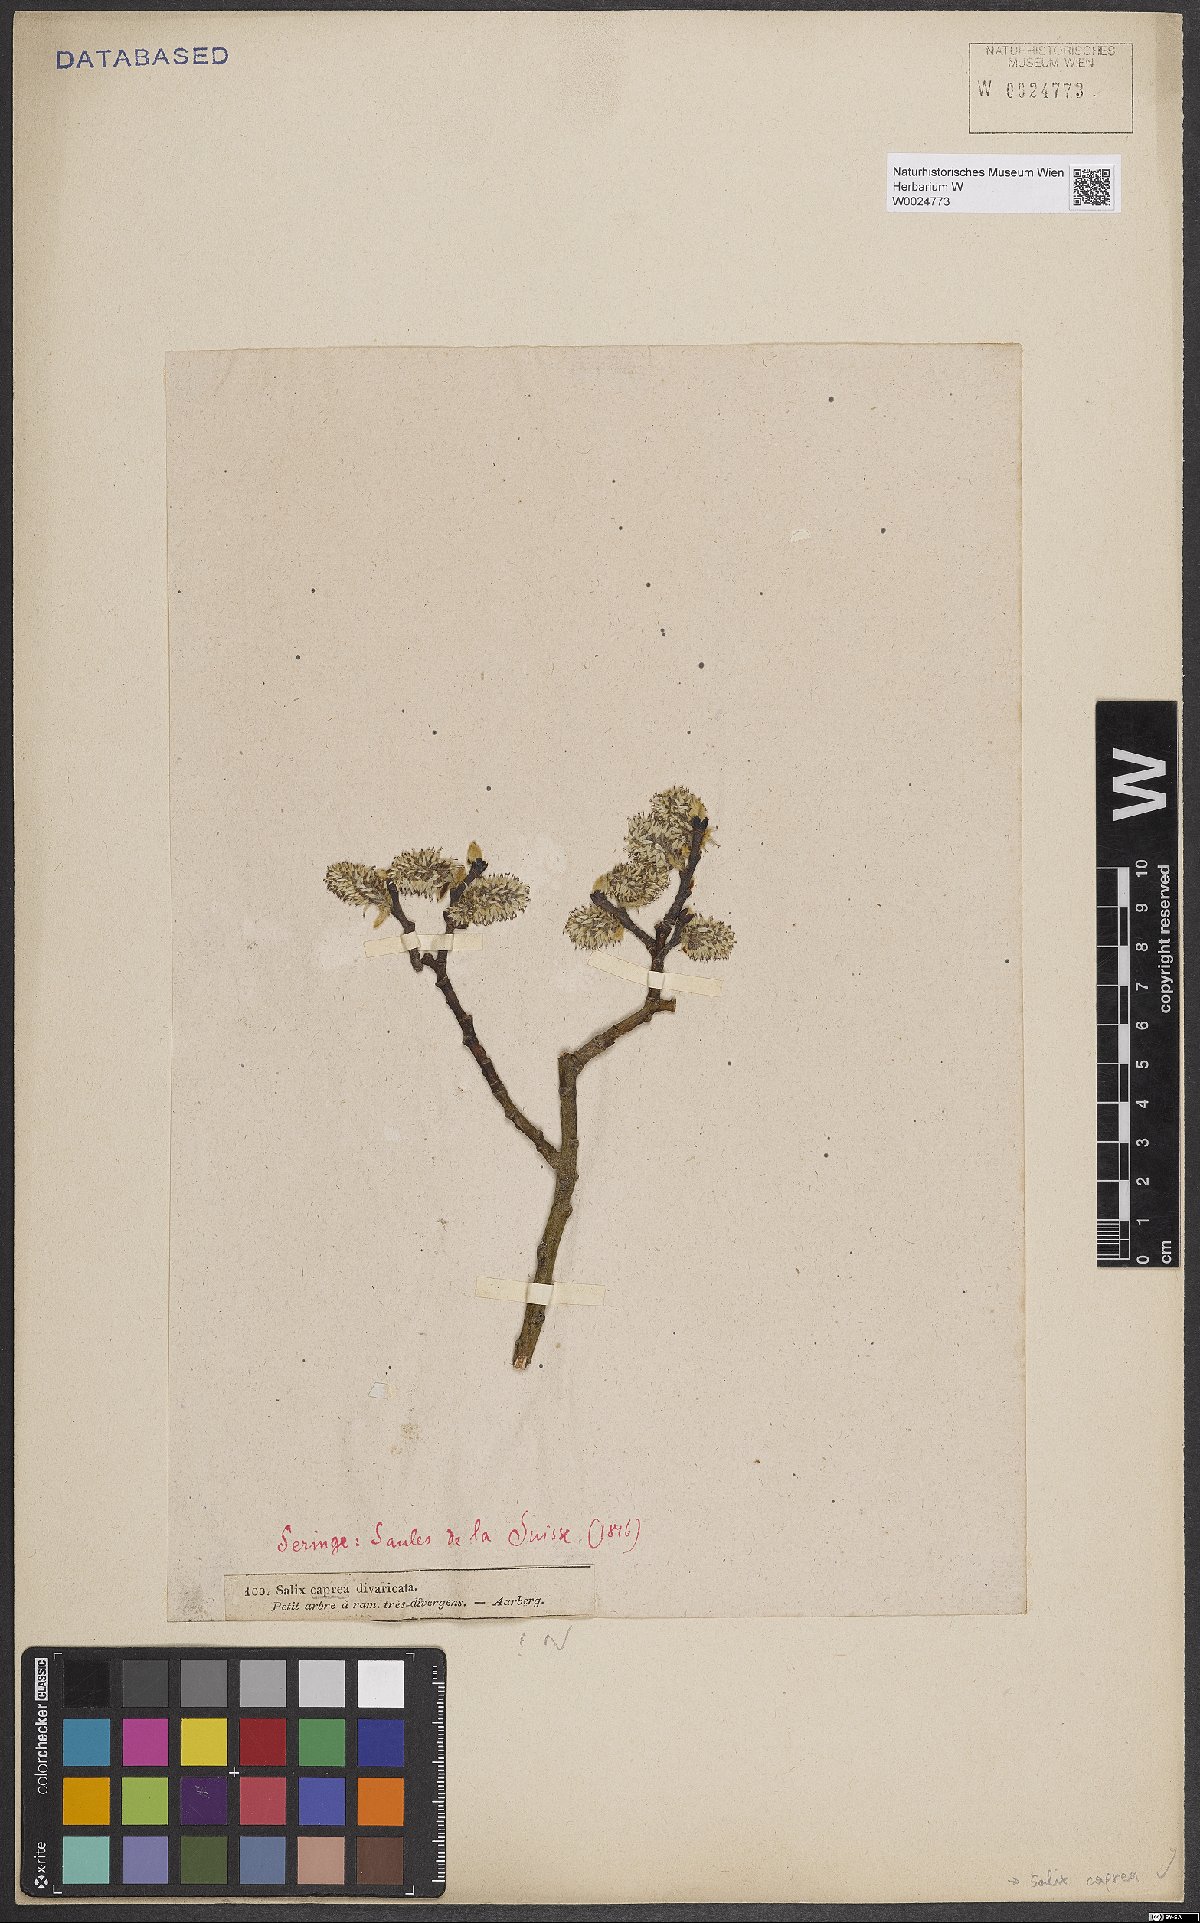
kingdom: Plantae
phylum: Tracheophyta
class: Magnoliopsida
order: Malpighiales
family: Salicaceae
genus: Salix
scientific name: Salix caprea
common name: Goat willow
